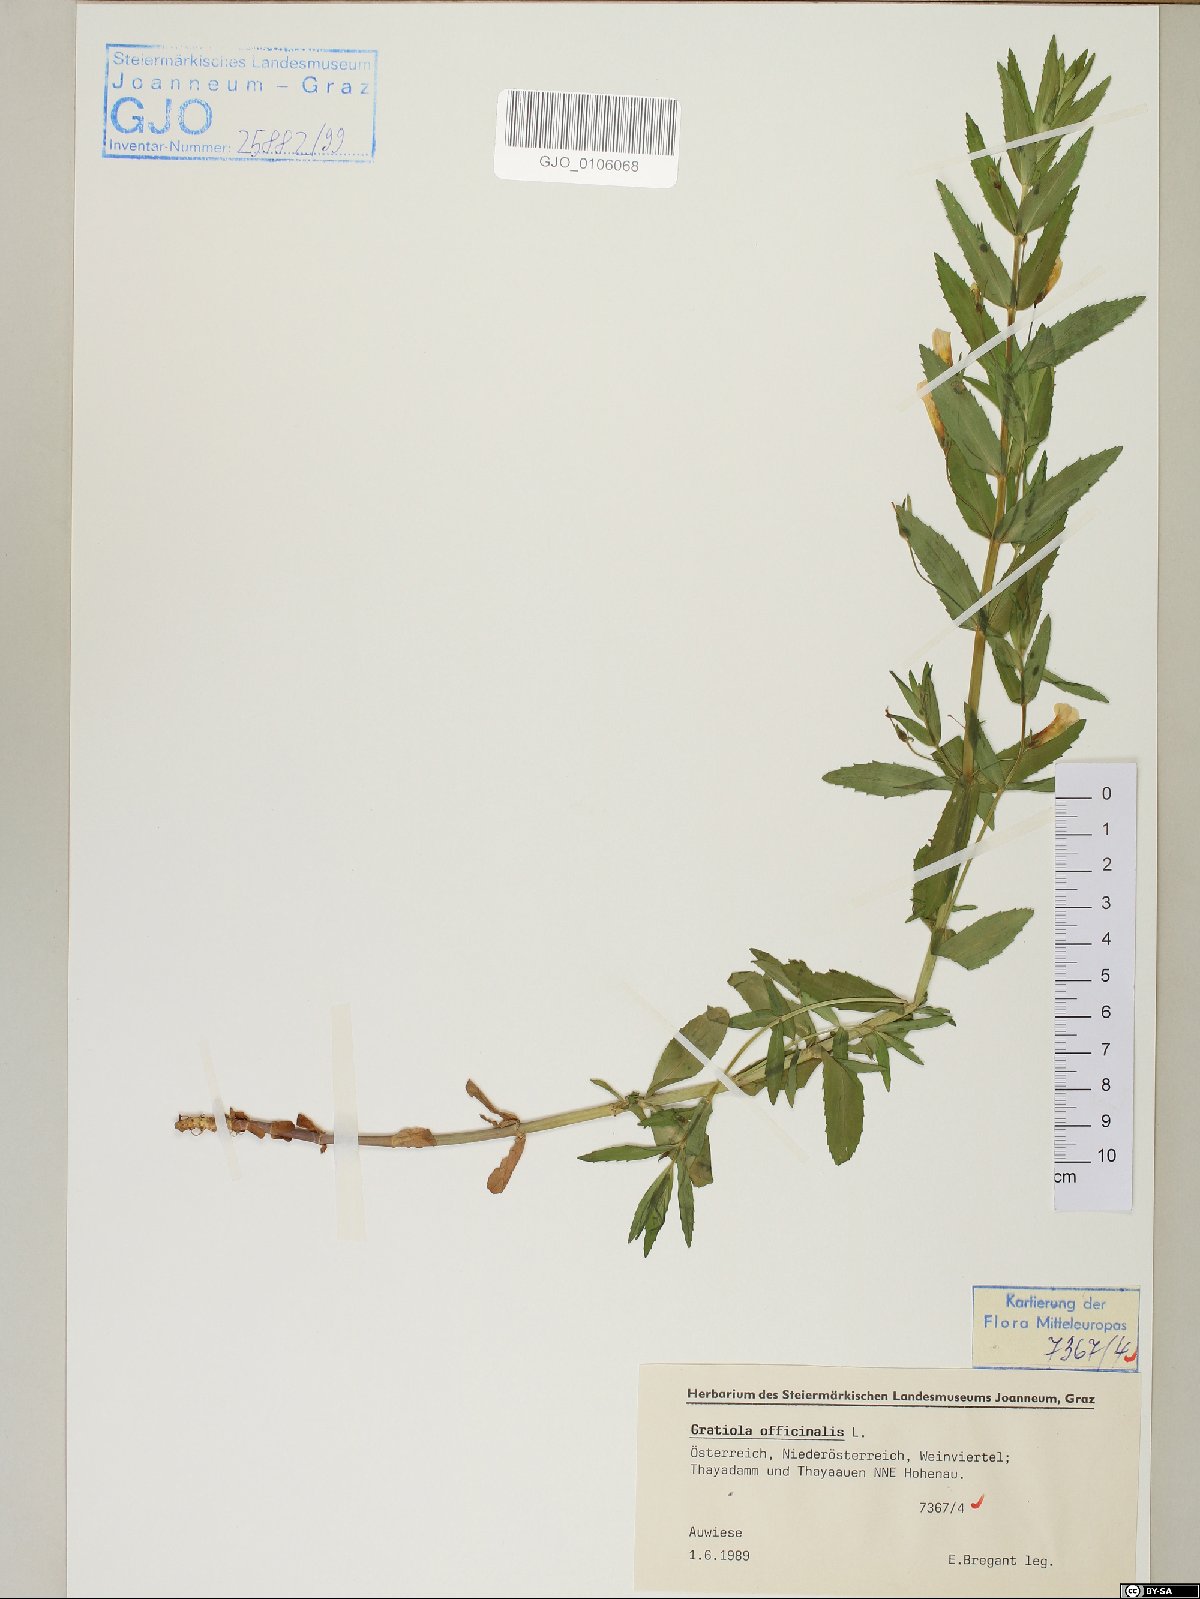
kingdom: Plantae
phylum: Tracheophyta
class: Magnoliopsida
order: Lamiales
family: Plantaginaceae
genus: Gratiola
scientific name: Gratiola officinalis
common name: Gratiola
